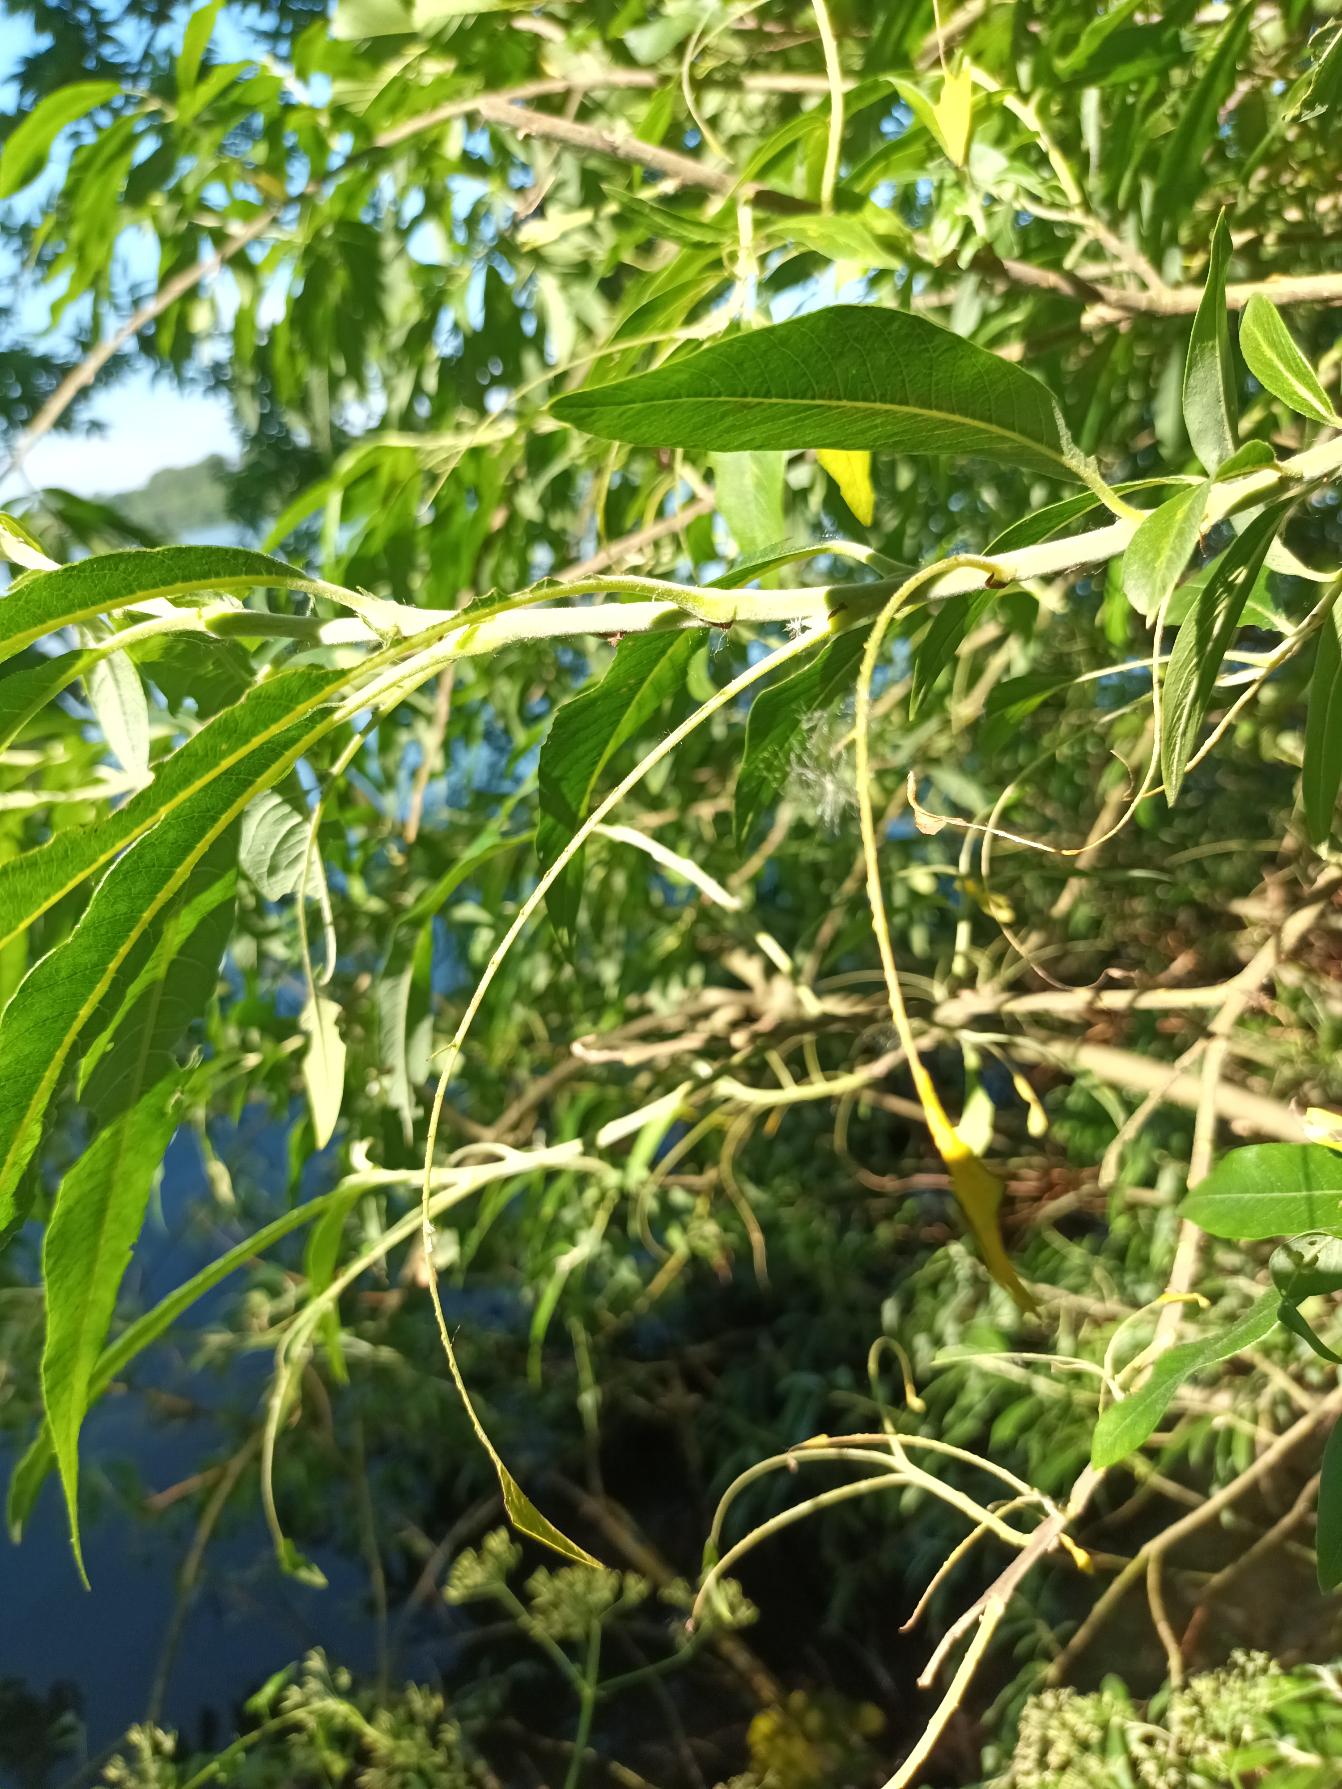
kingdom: Plantae
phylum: Tracheophyta
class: Magnoliopsida
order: Malpighiales
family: Salicaceae
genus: Salix
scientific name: Salix gmelinii
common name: Lådden pil
